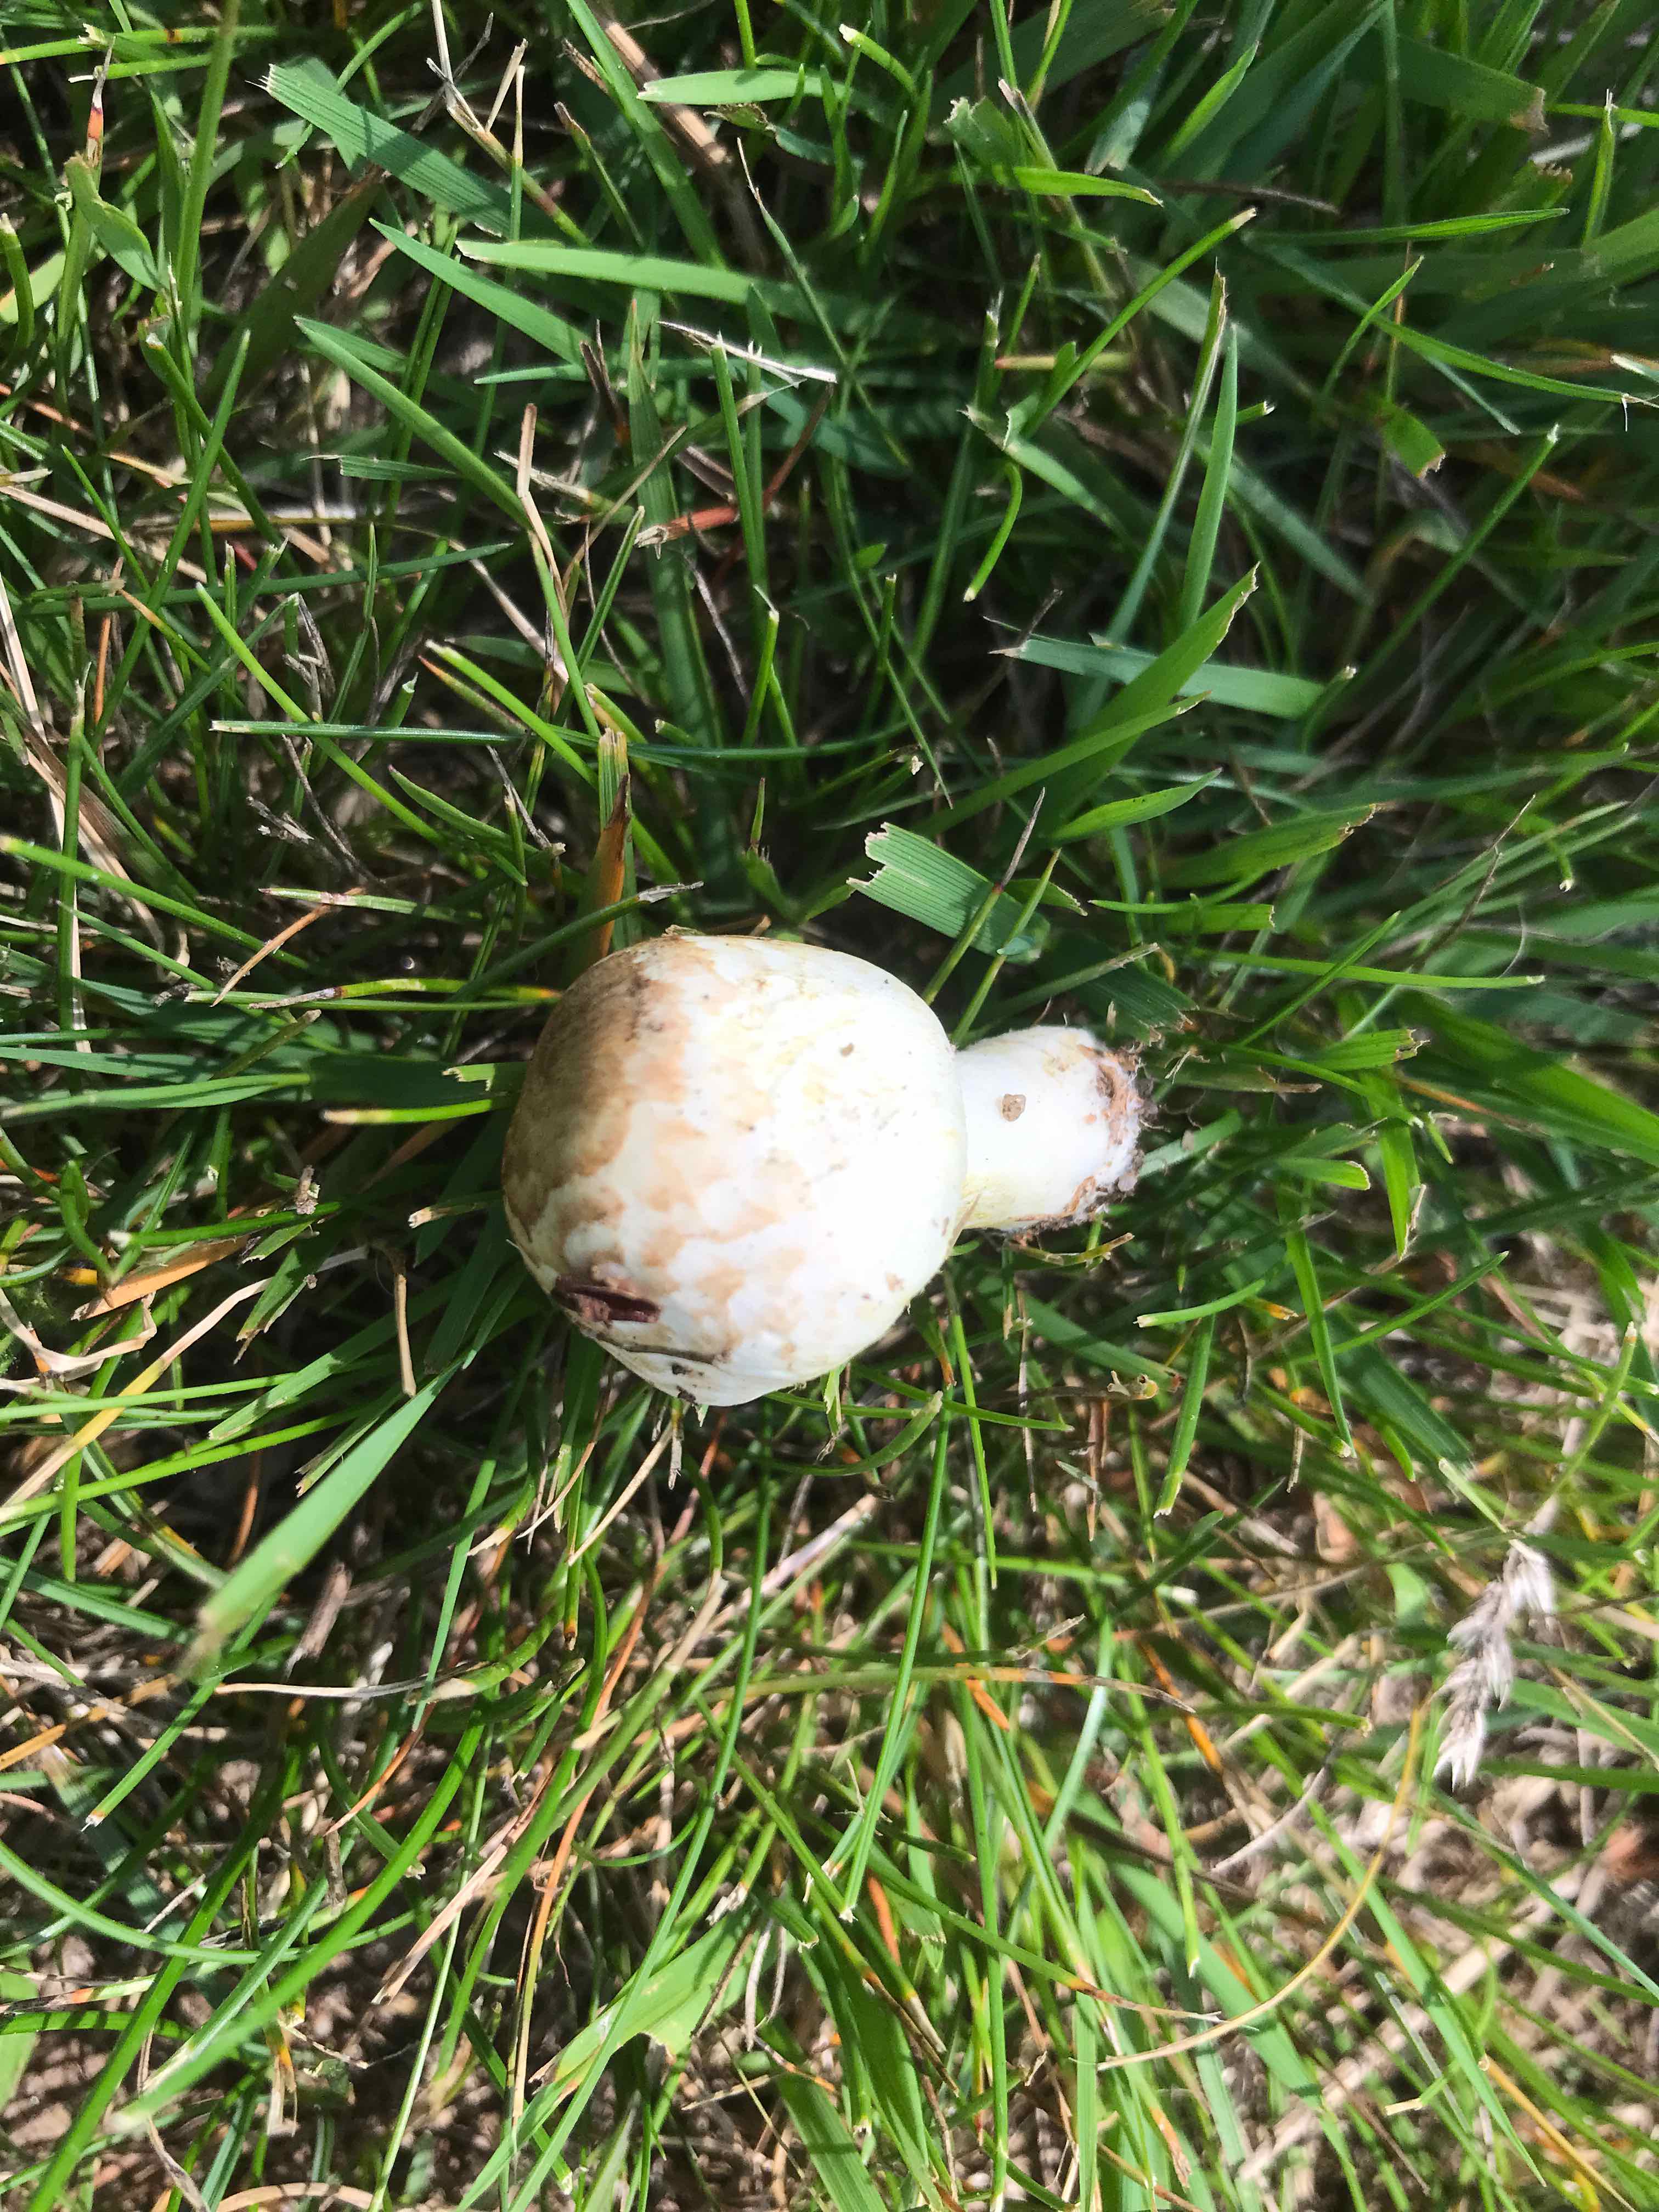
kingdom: Fungi
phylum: Basidiomycota
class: Agaricomycetes
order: Agaricales
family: Agaricaceae
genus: Agaricus
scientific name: Agaricus
